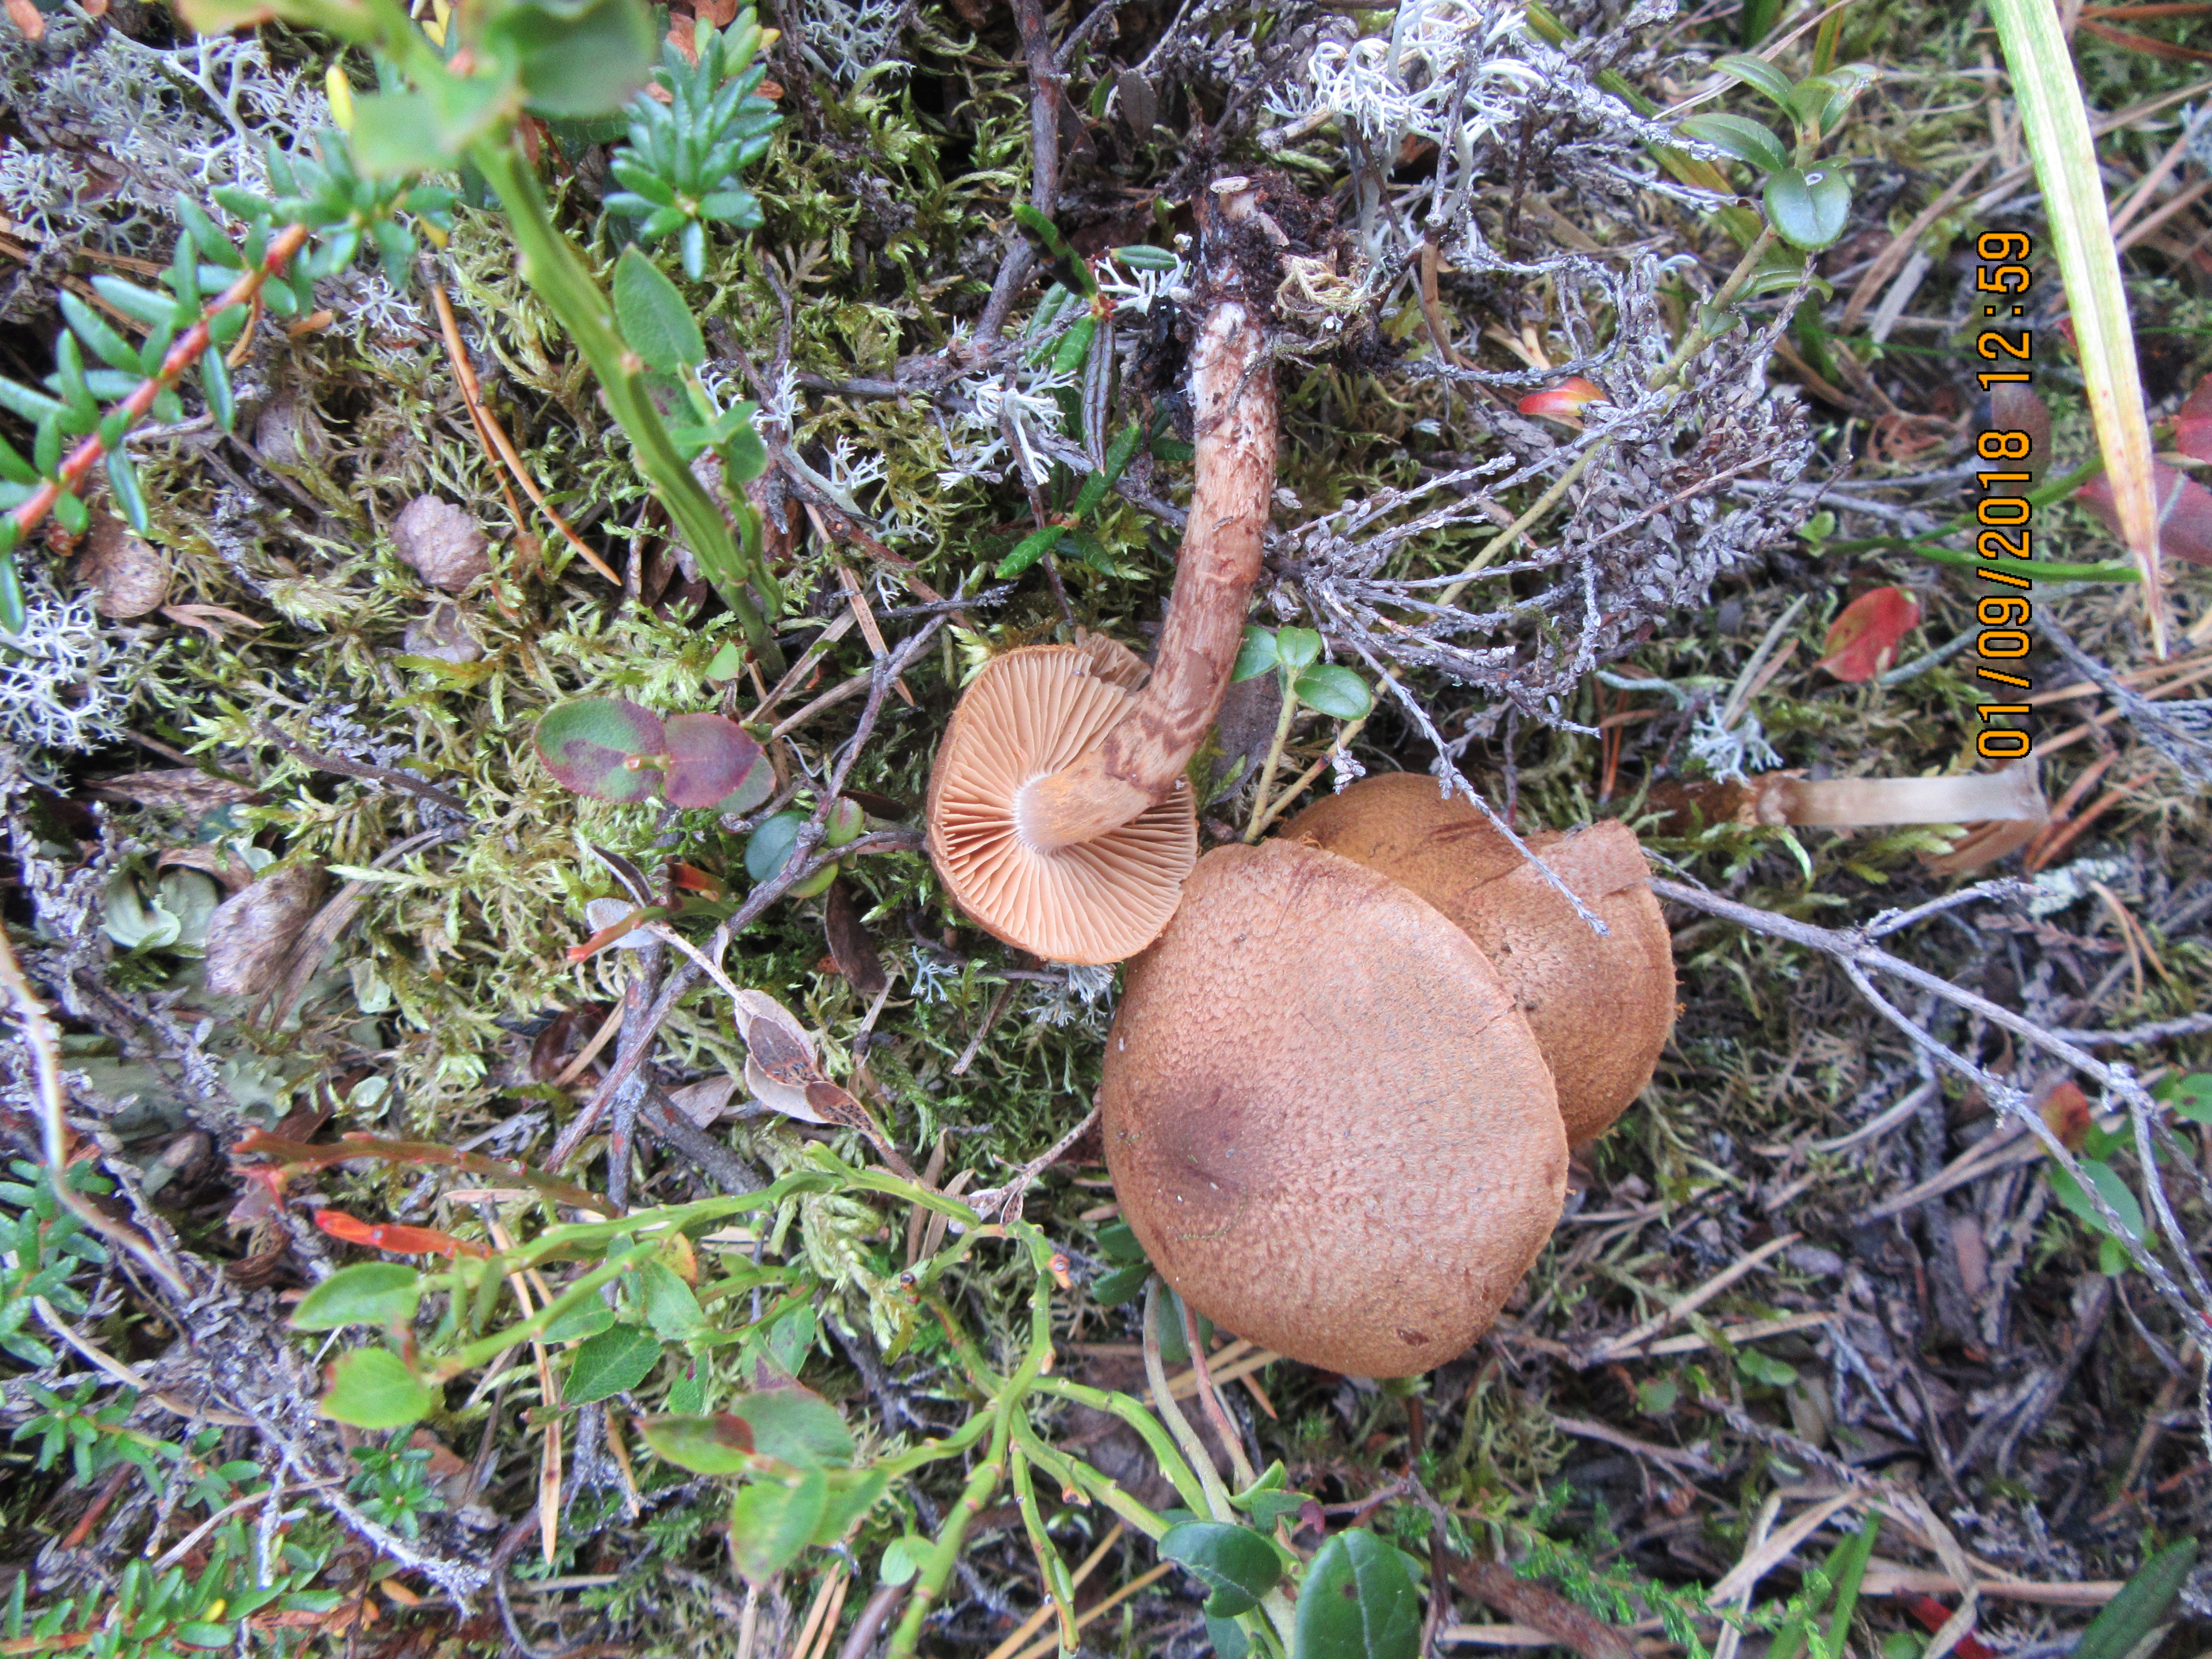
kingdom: Fungi
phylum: Basidiomycota
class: Agaricomycetes
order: Agaricales
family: Cortinariaceae
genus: Cortinarius
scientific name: Cortinarius pholideus
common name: Scaly webcap
